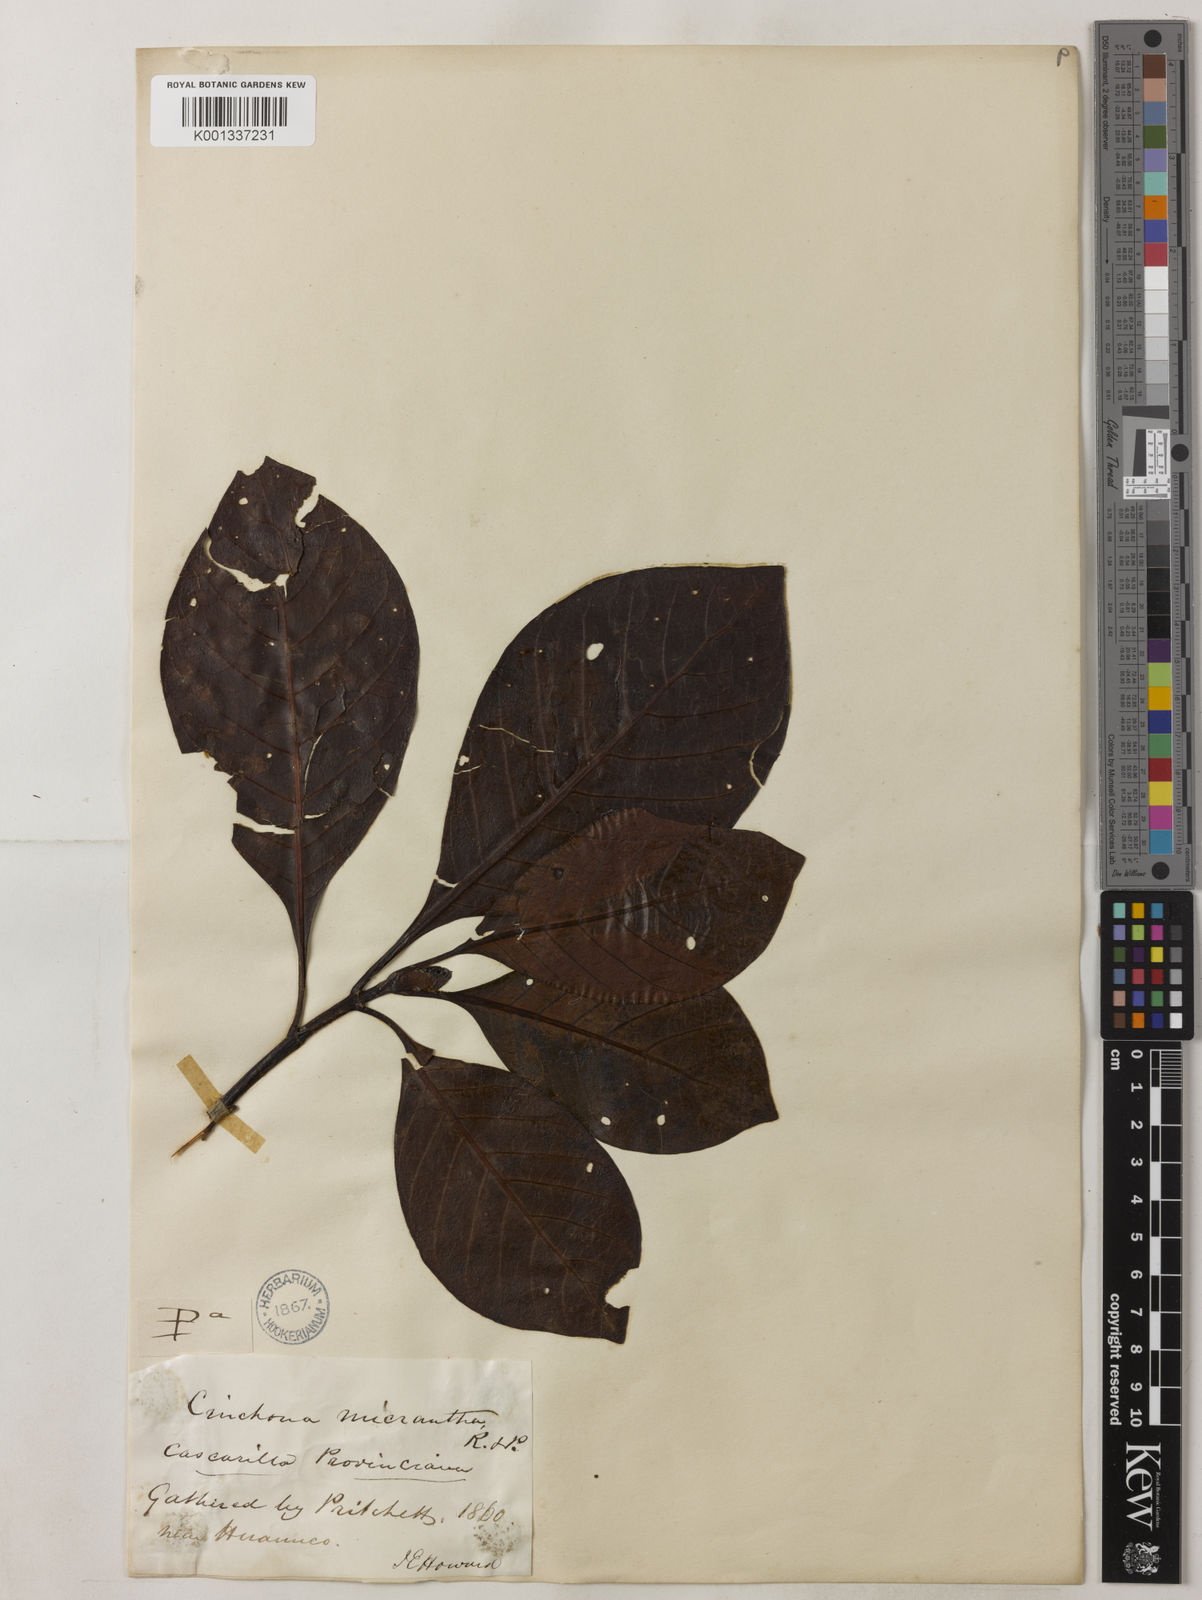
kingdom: Plantae
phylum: Tracheophyta
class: Magnoliopsida
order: Gentianales
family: Rubiaceae
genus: Cinchona
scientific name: Cinchona micrantha
